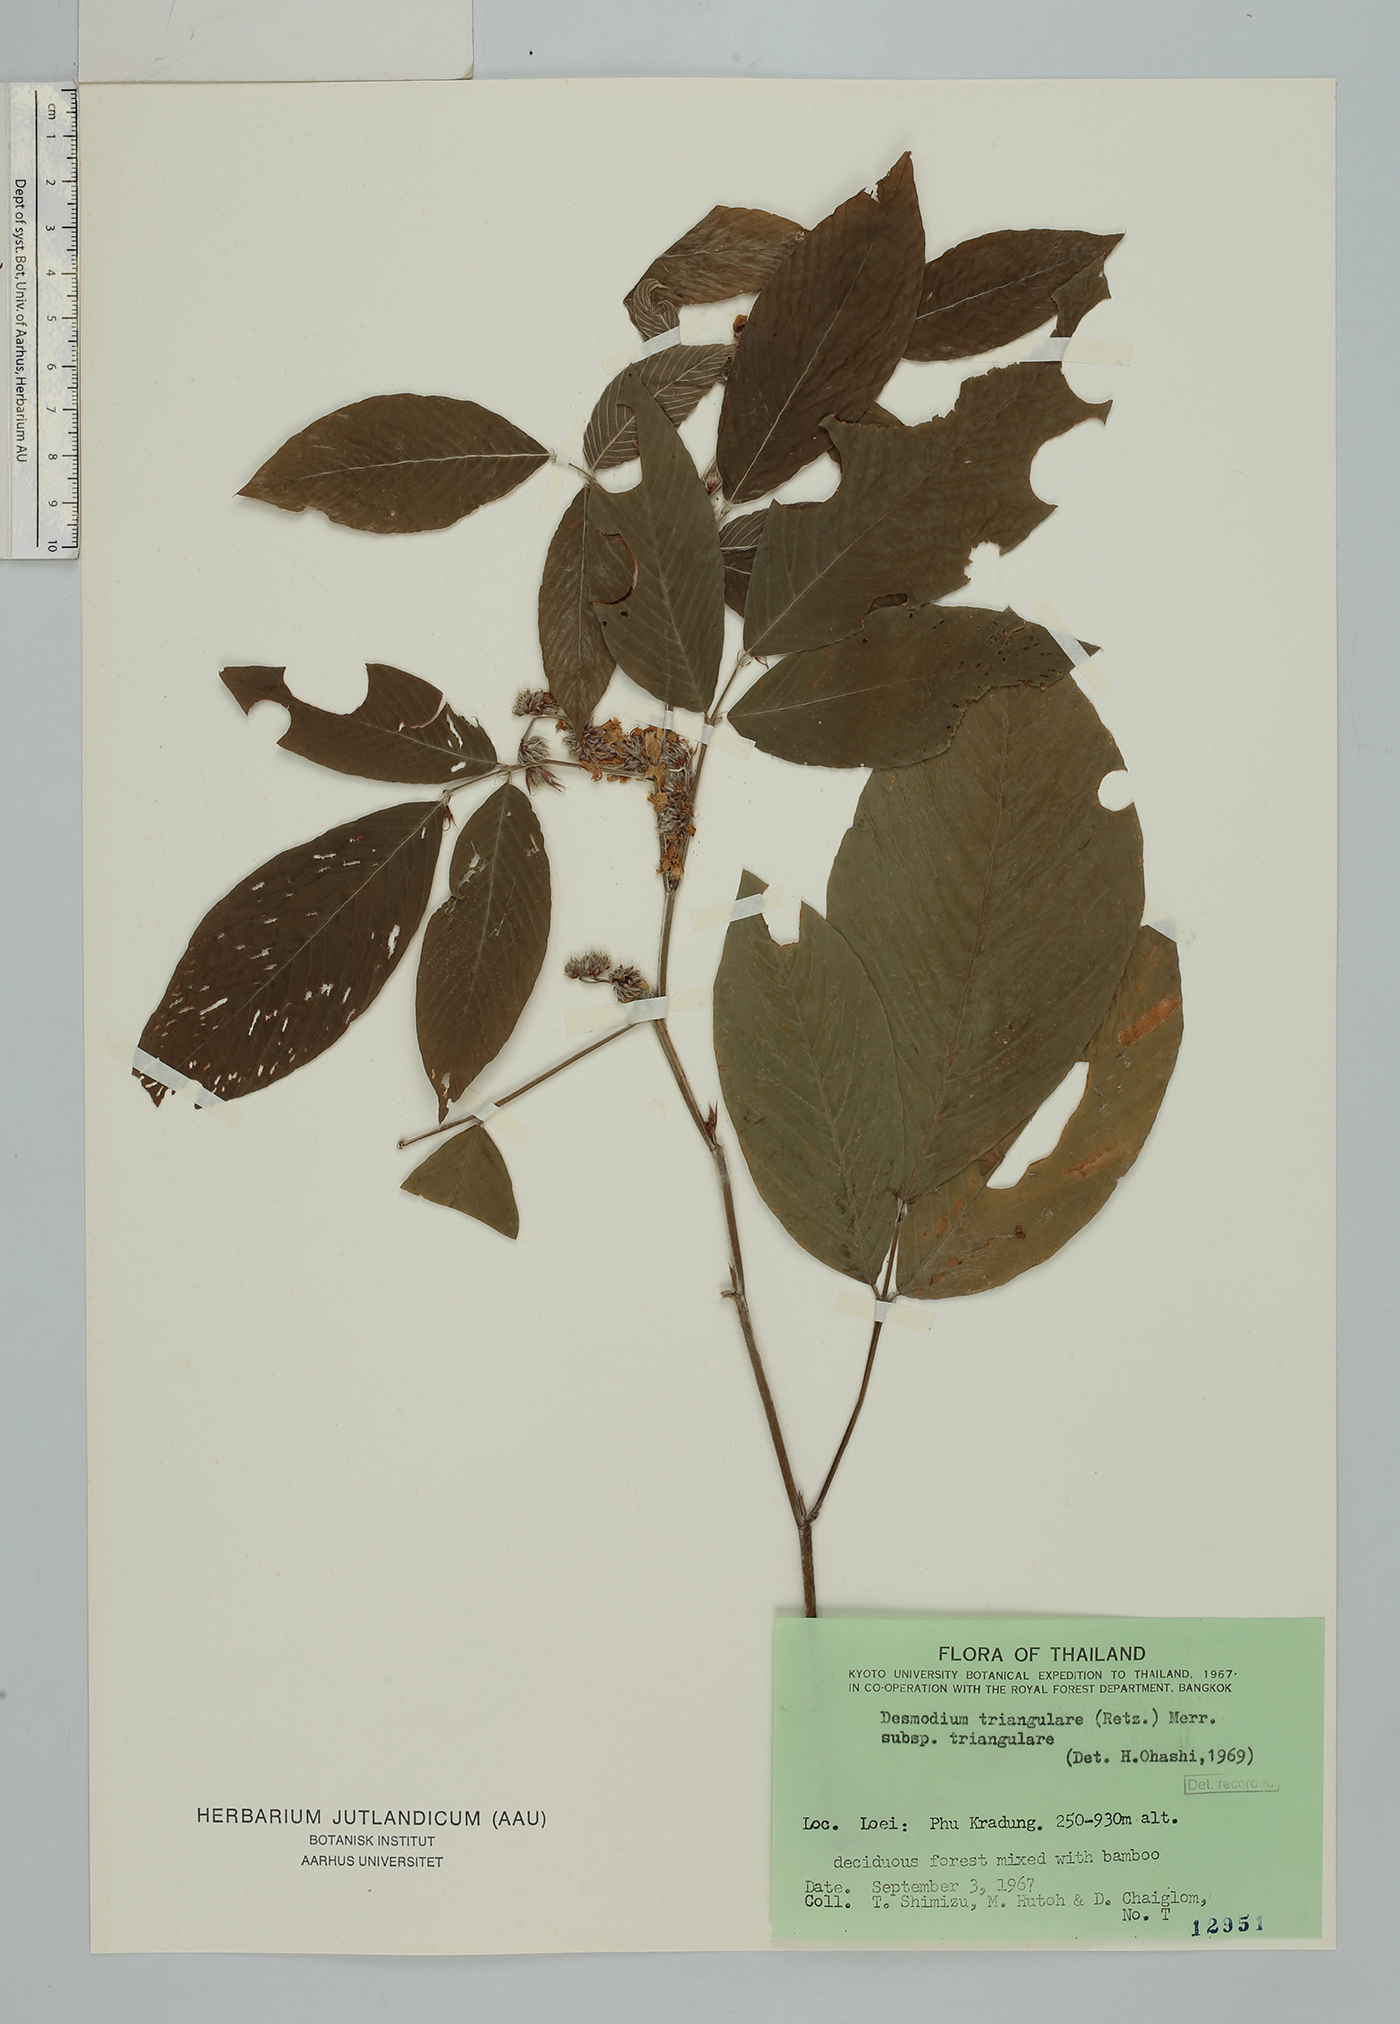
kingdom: Plantae
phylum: Tracheophyta
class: Magnoliopsida
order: Fabales
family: Fabaceae
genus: Dendrolobium
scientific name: Dendrolobium triangulare
